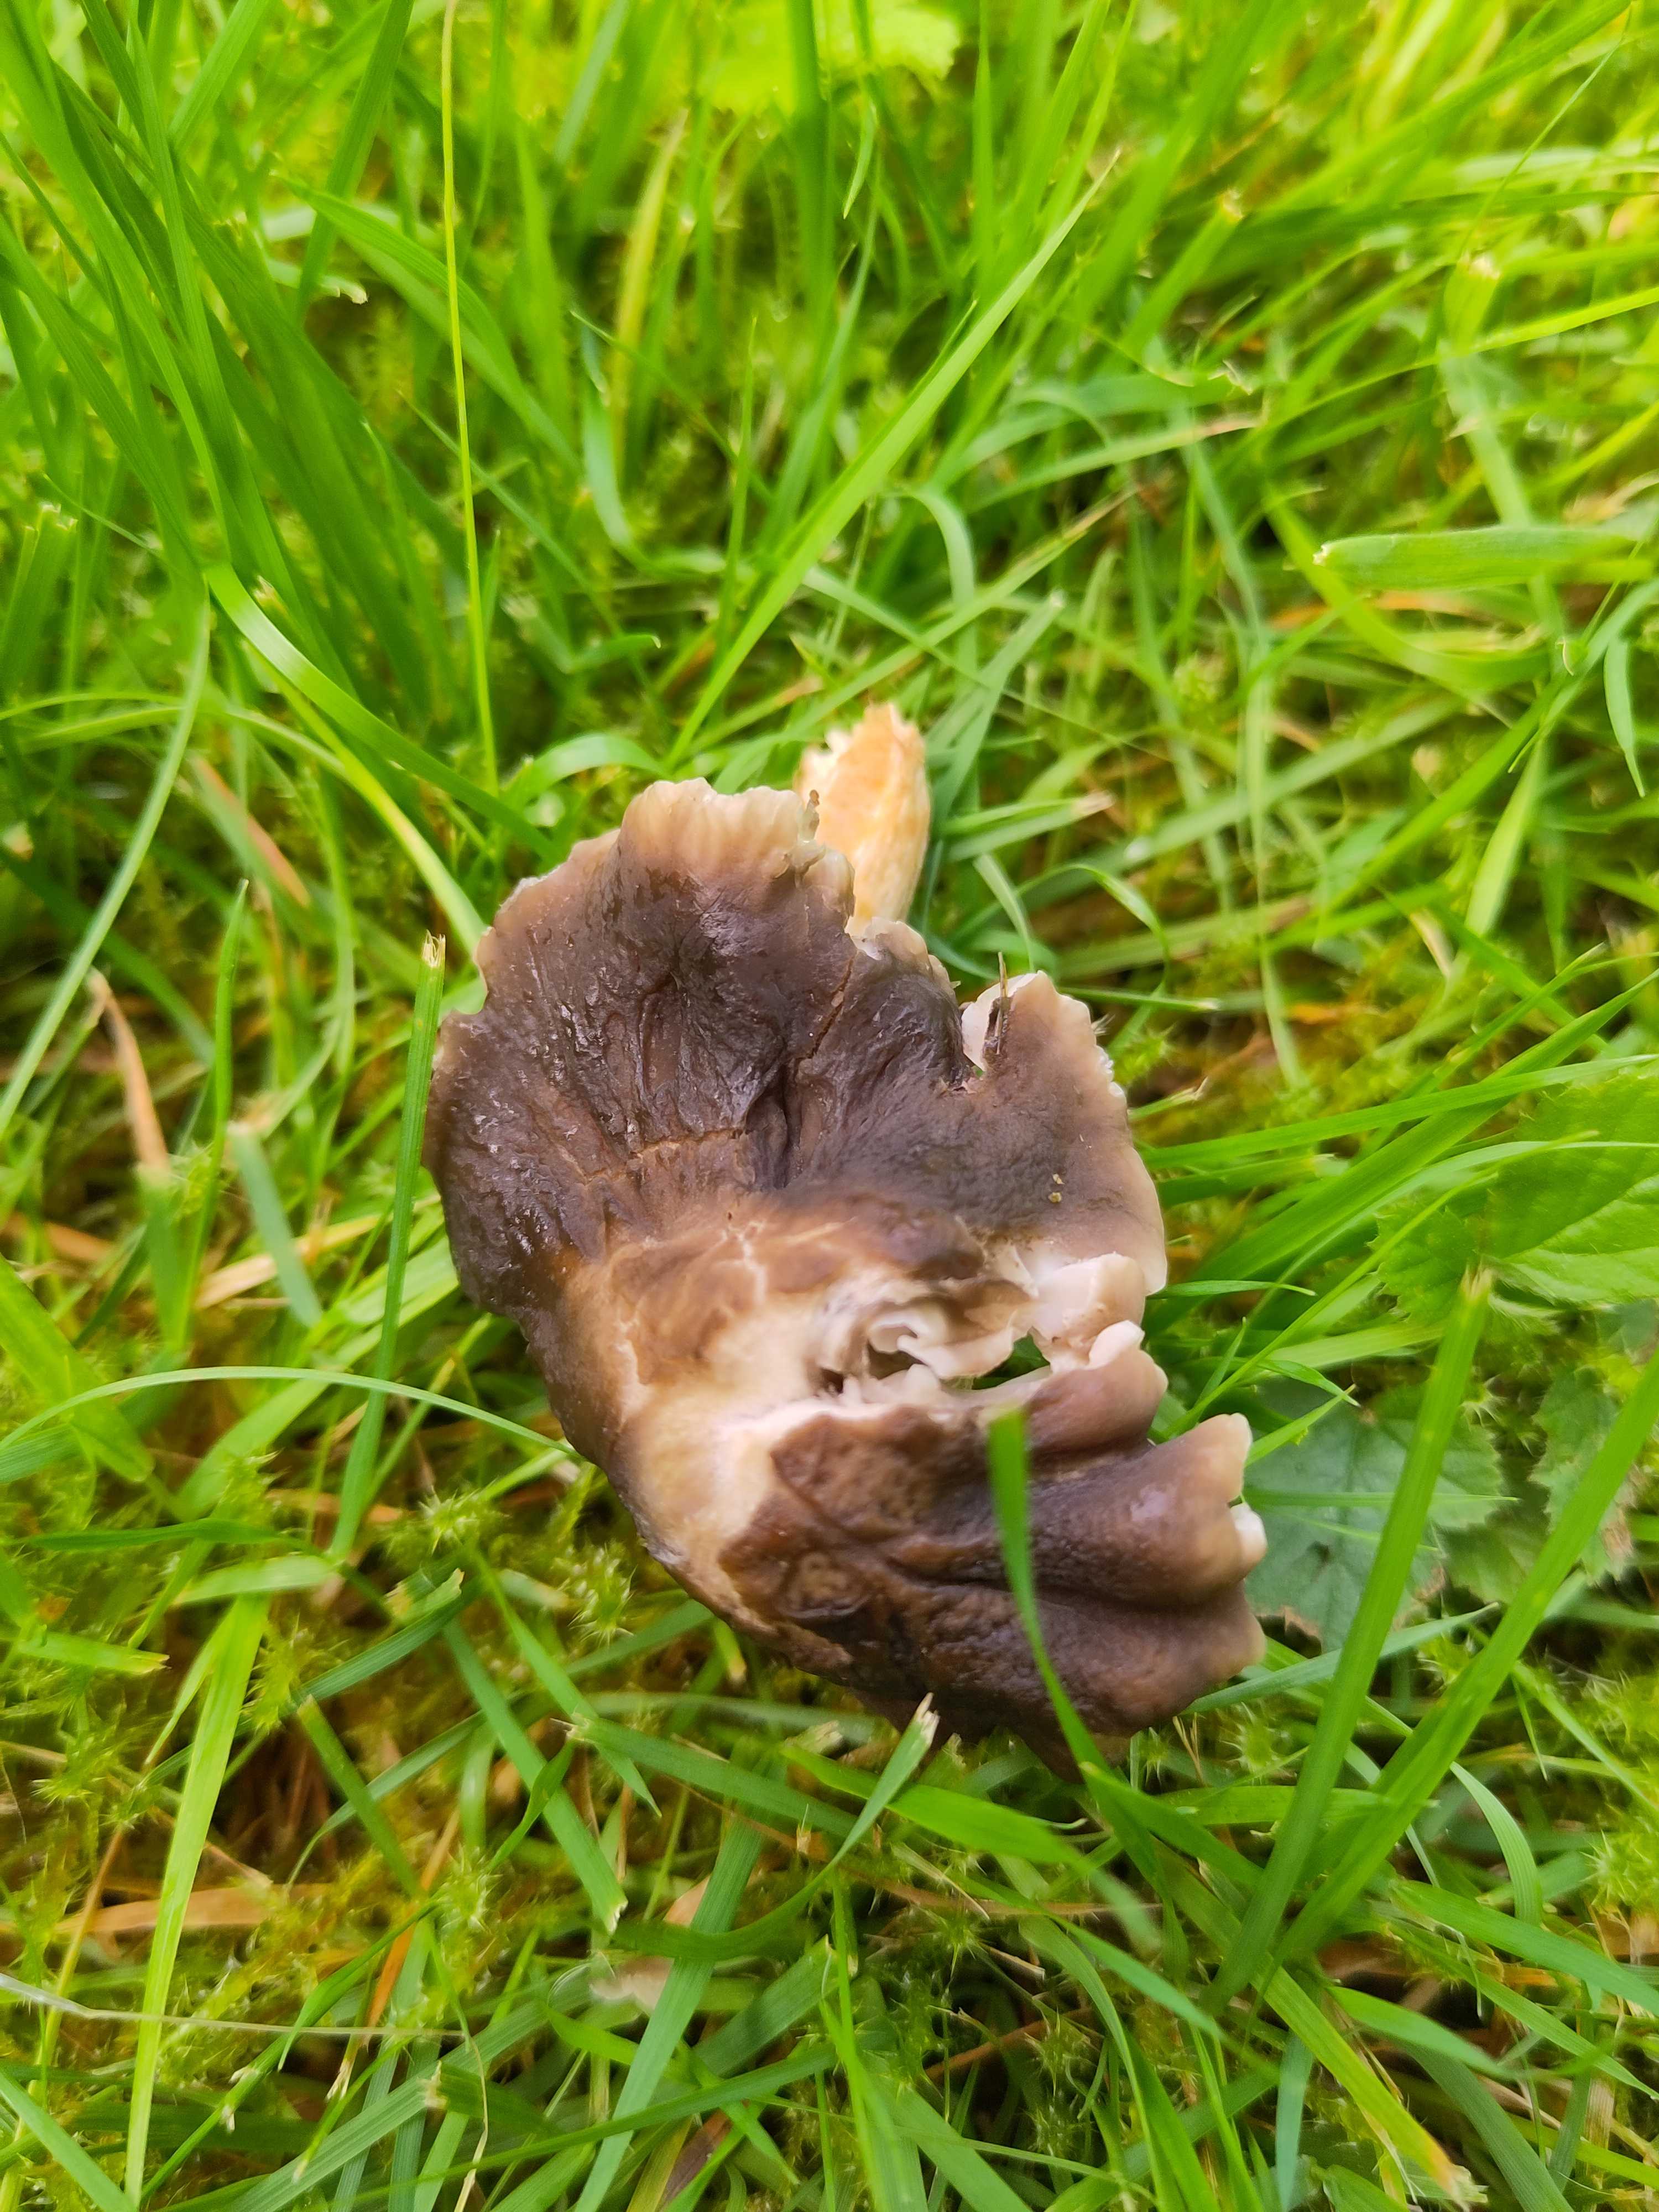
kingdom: Fungi
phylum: Basidiomycota
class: Agaricomycetes
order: Agaricales
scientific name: Agaricales
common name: champignonordenen
